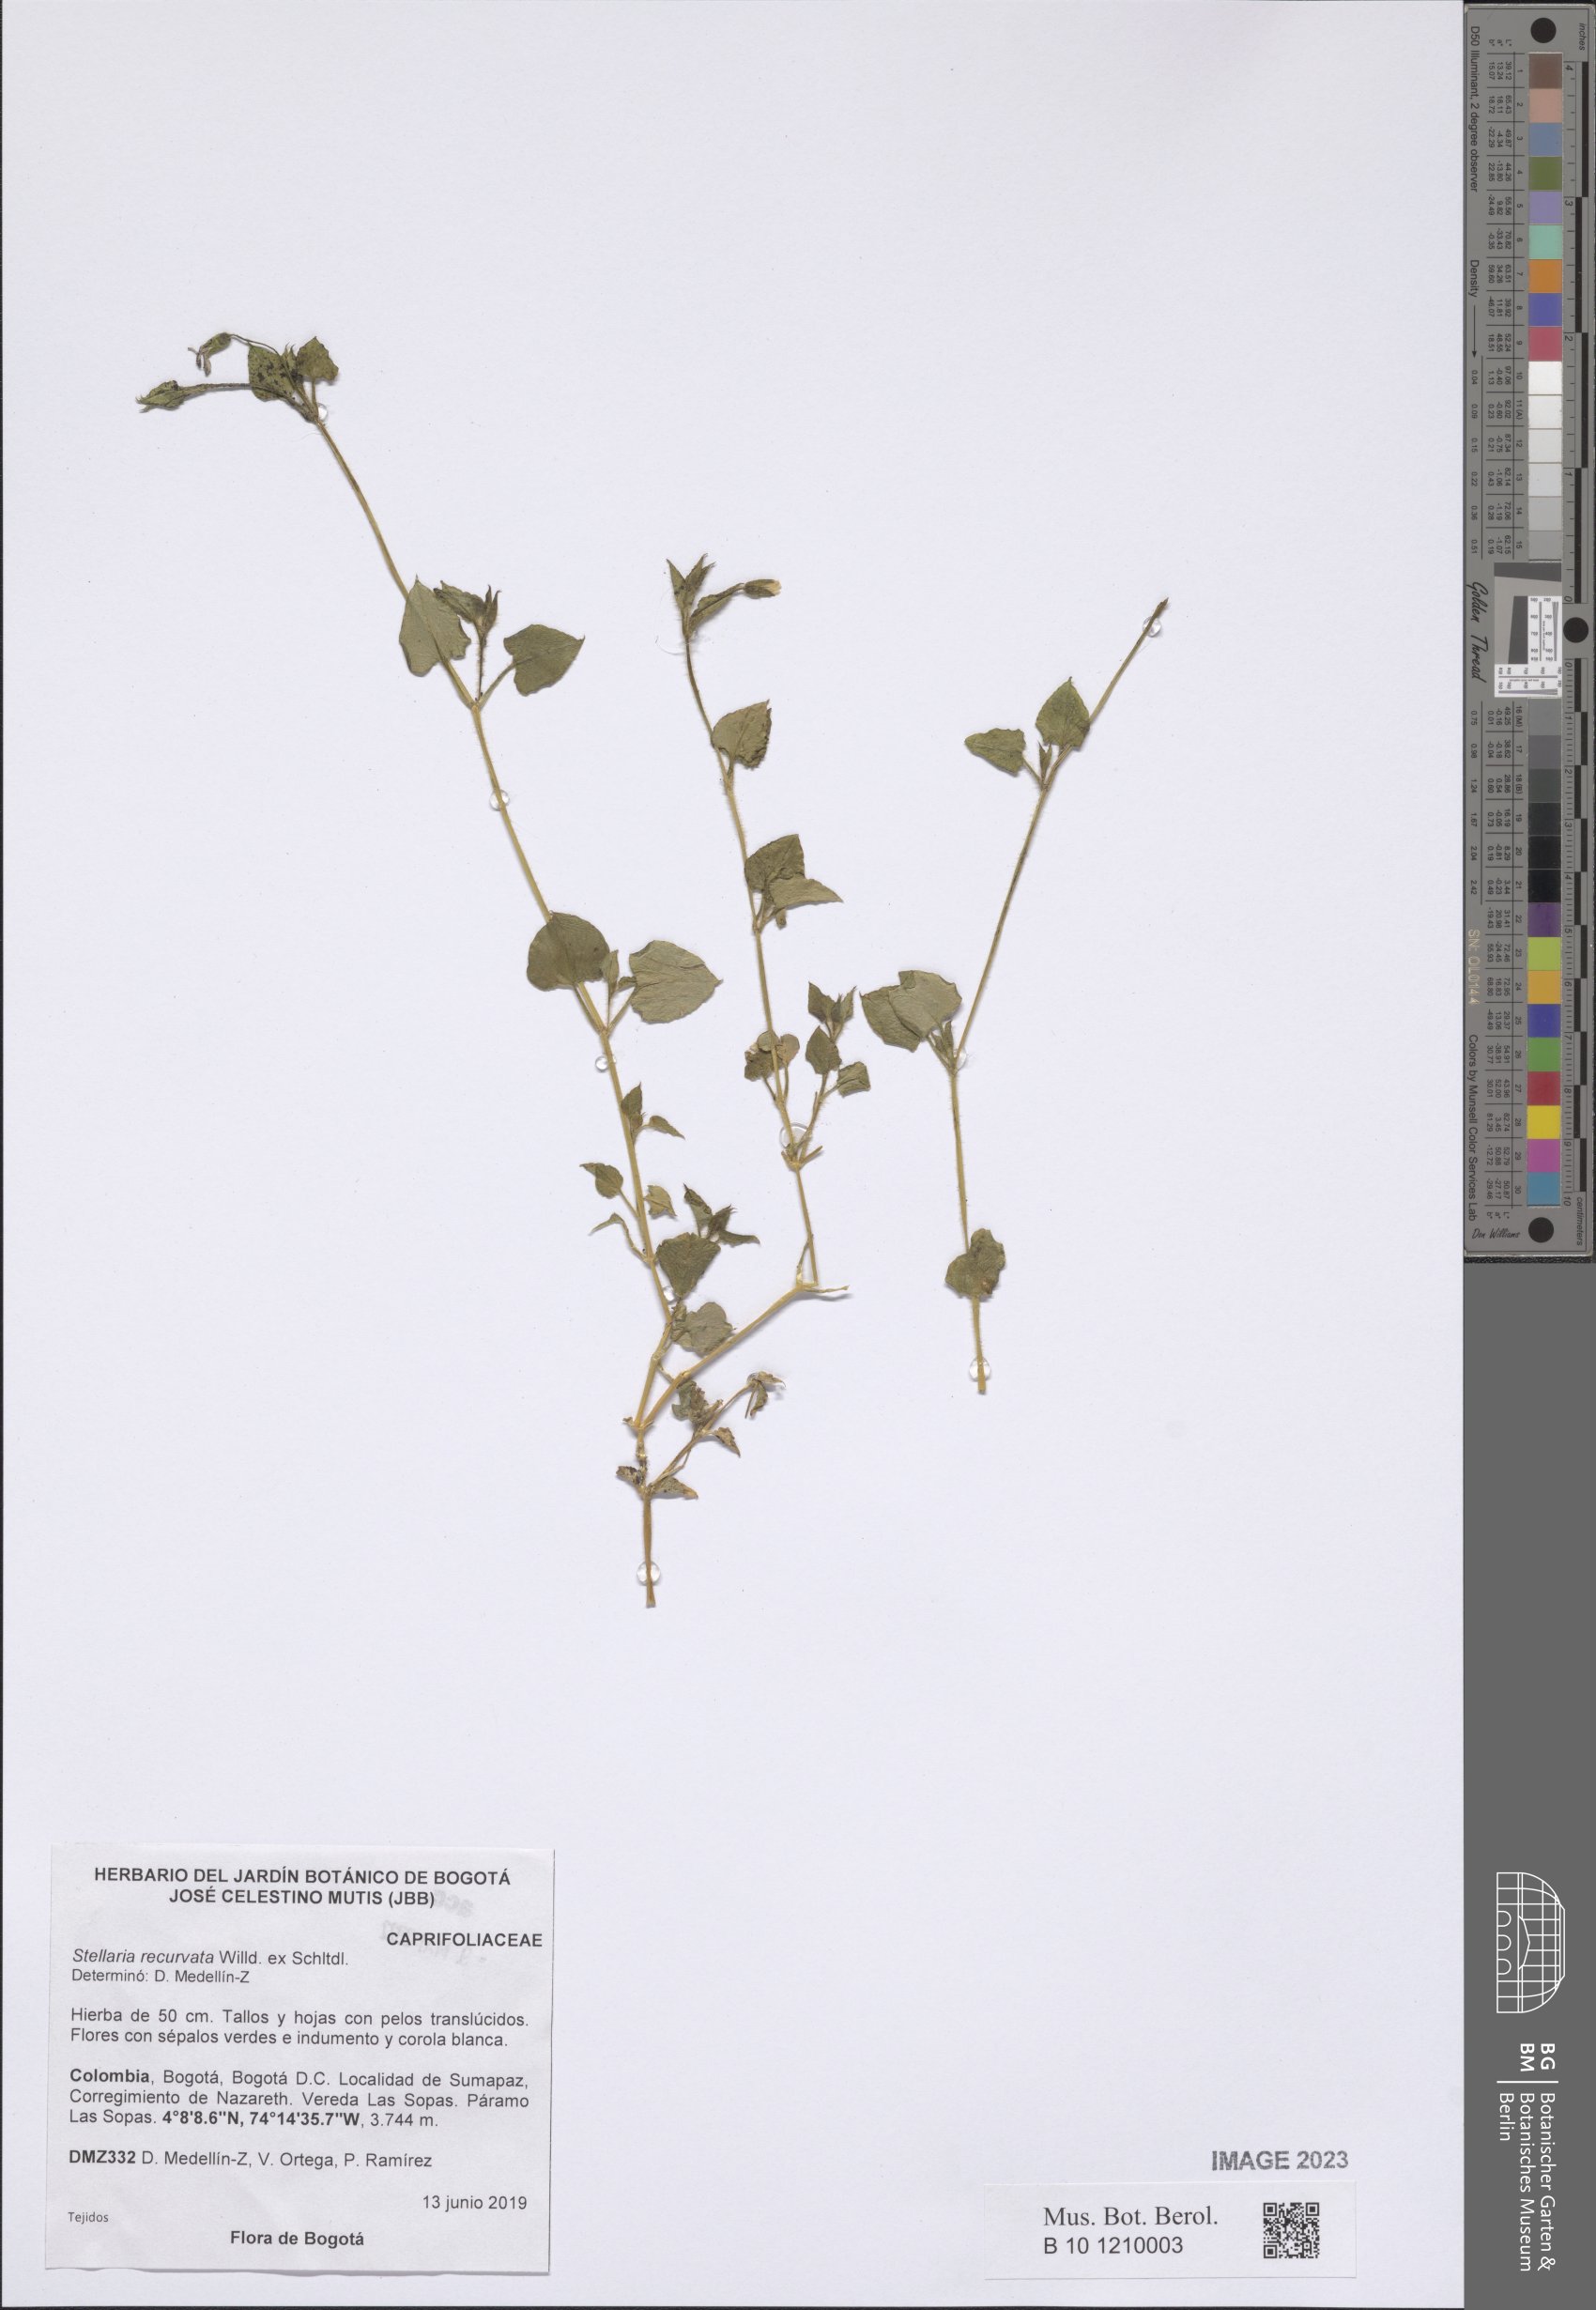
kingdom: Plantae
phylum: Tracheophyta
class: Magnoliopsida
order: Caryophyllales
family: Caryophyllaceae
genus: Stellaria
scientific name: Stellaria recurvata
